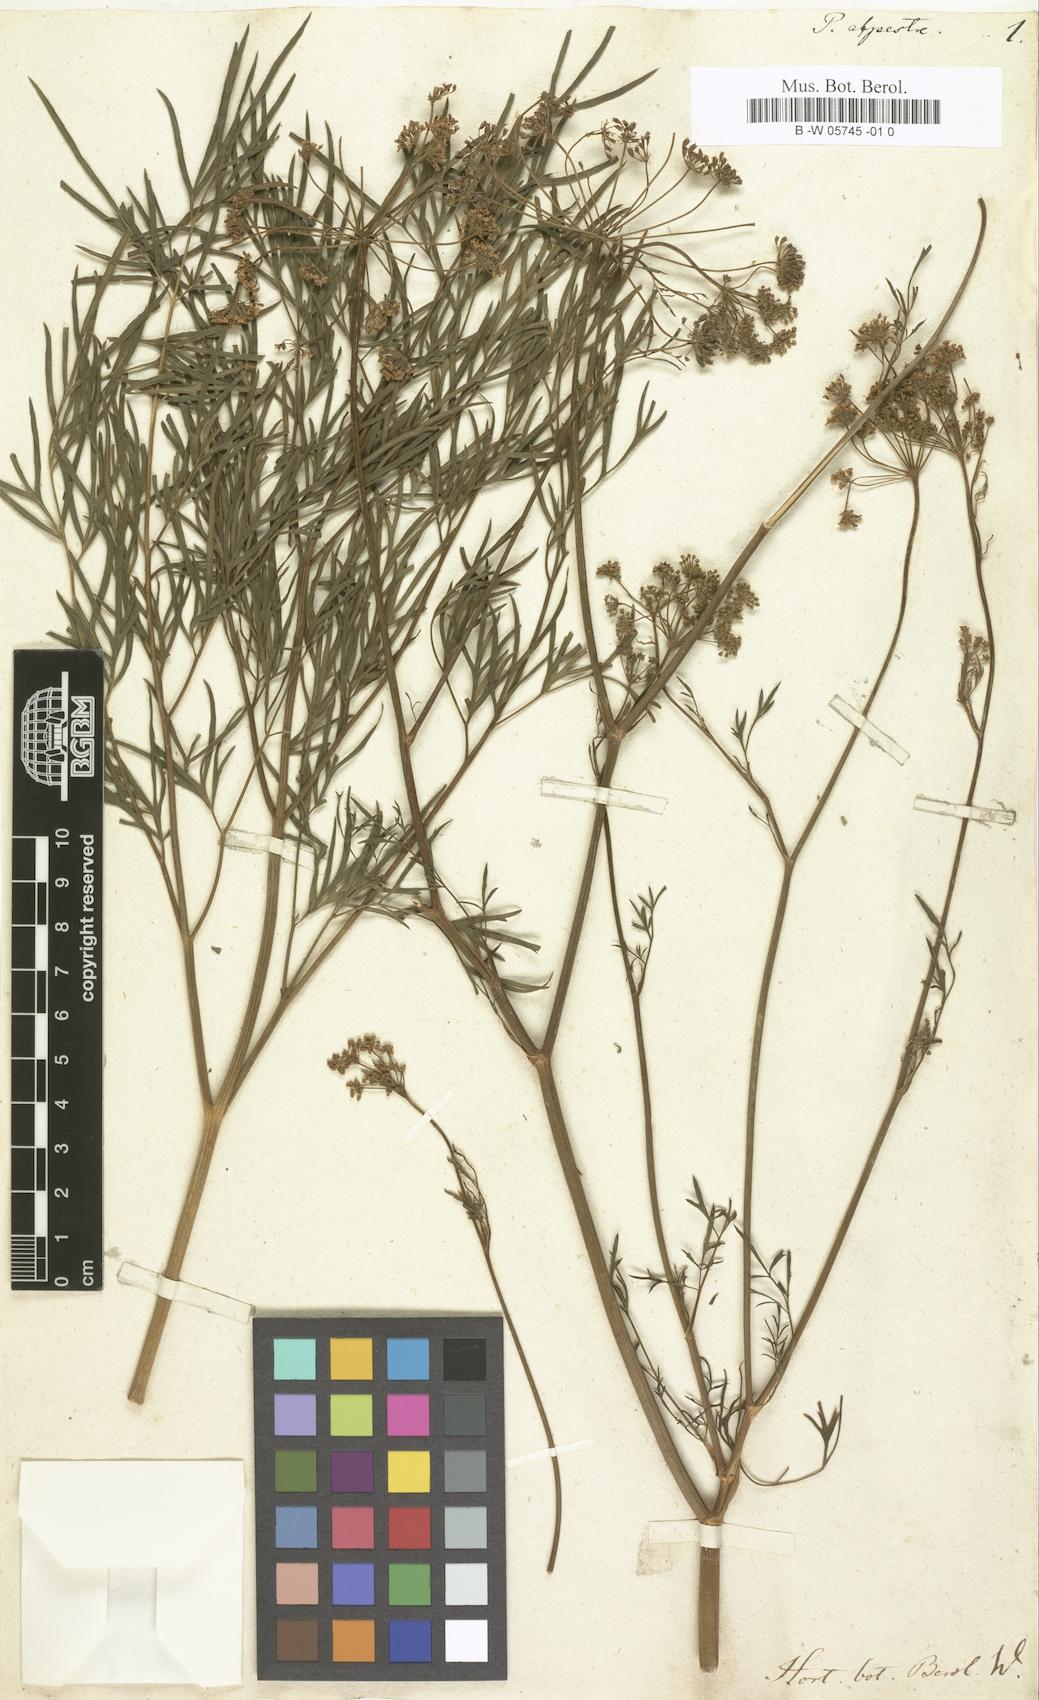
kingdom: Plantae
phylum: Tracheophyta
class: Magnoliopsida
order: Apiales
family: Apiaceae
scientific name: Apiaceae
